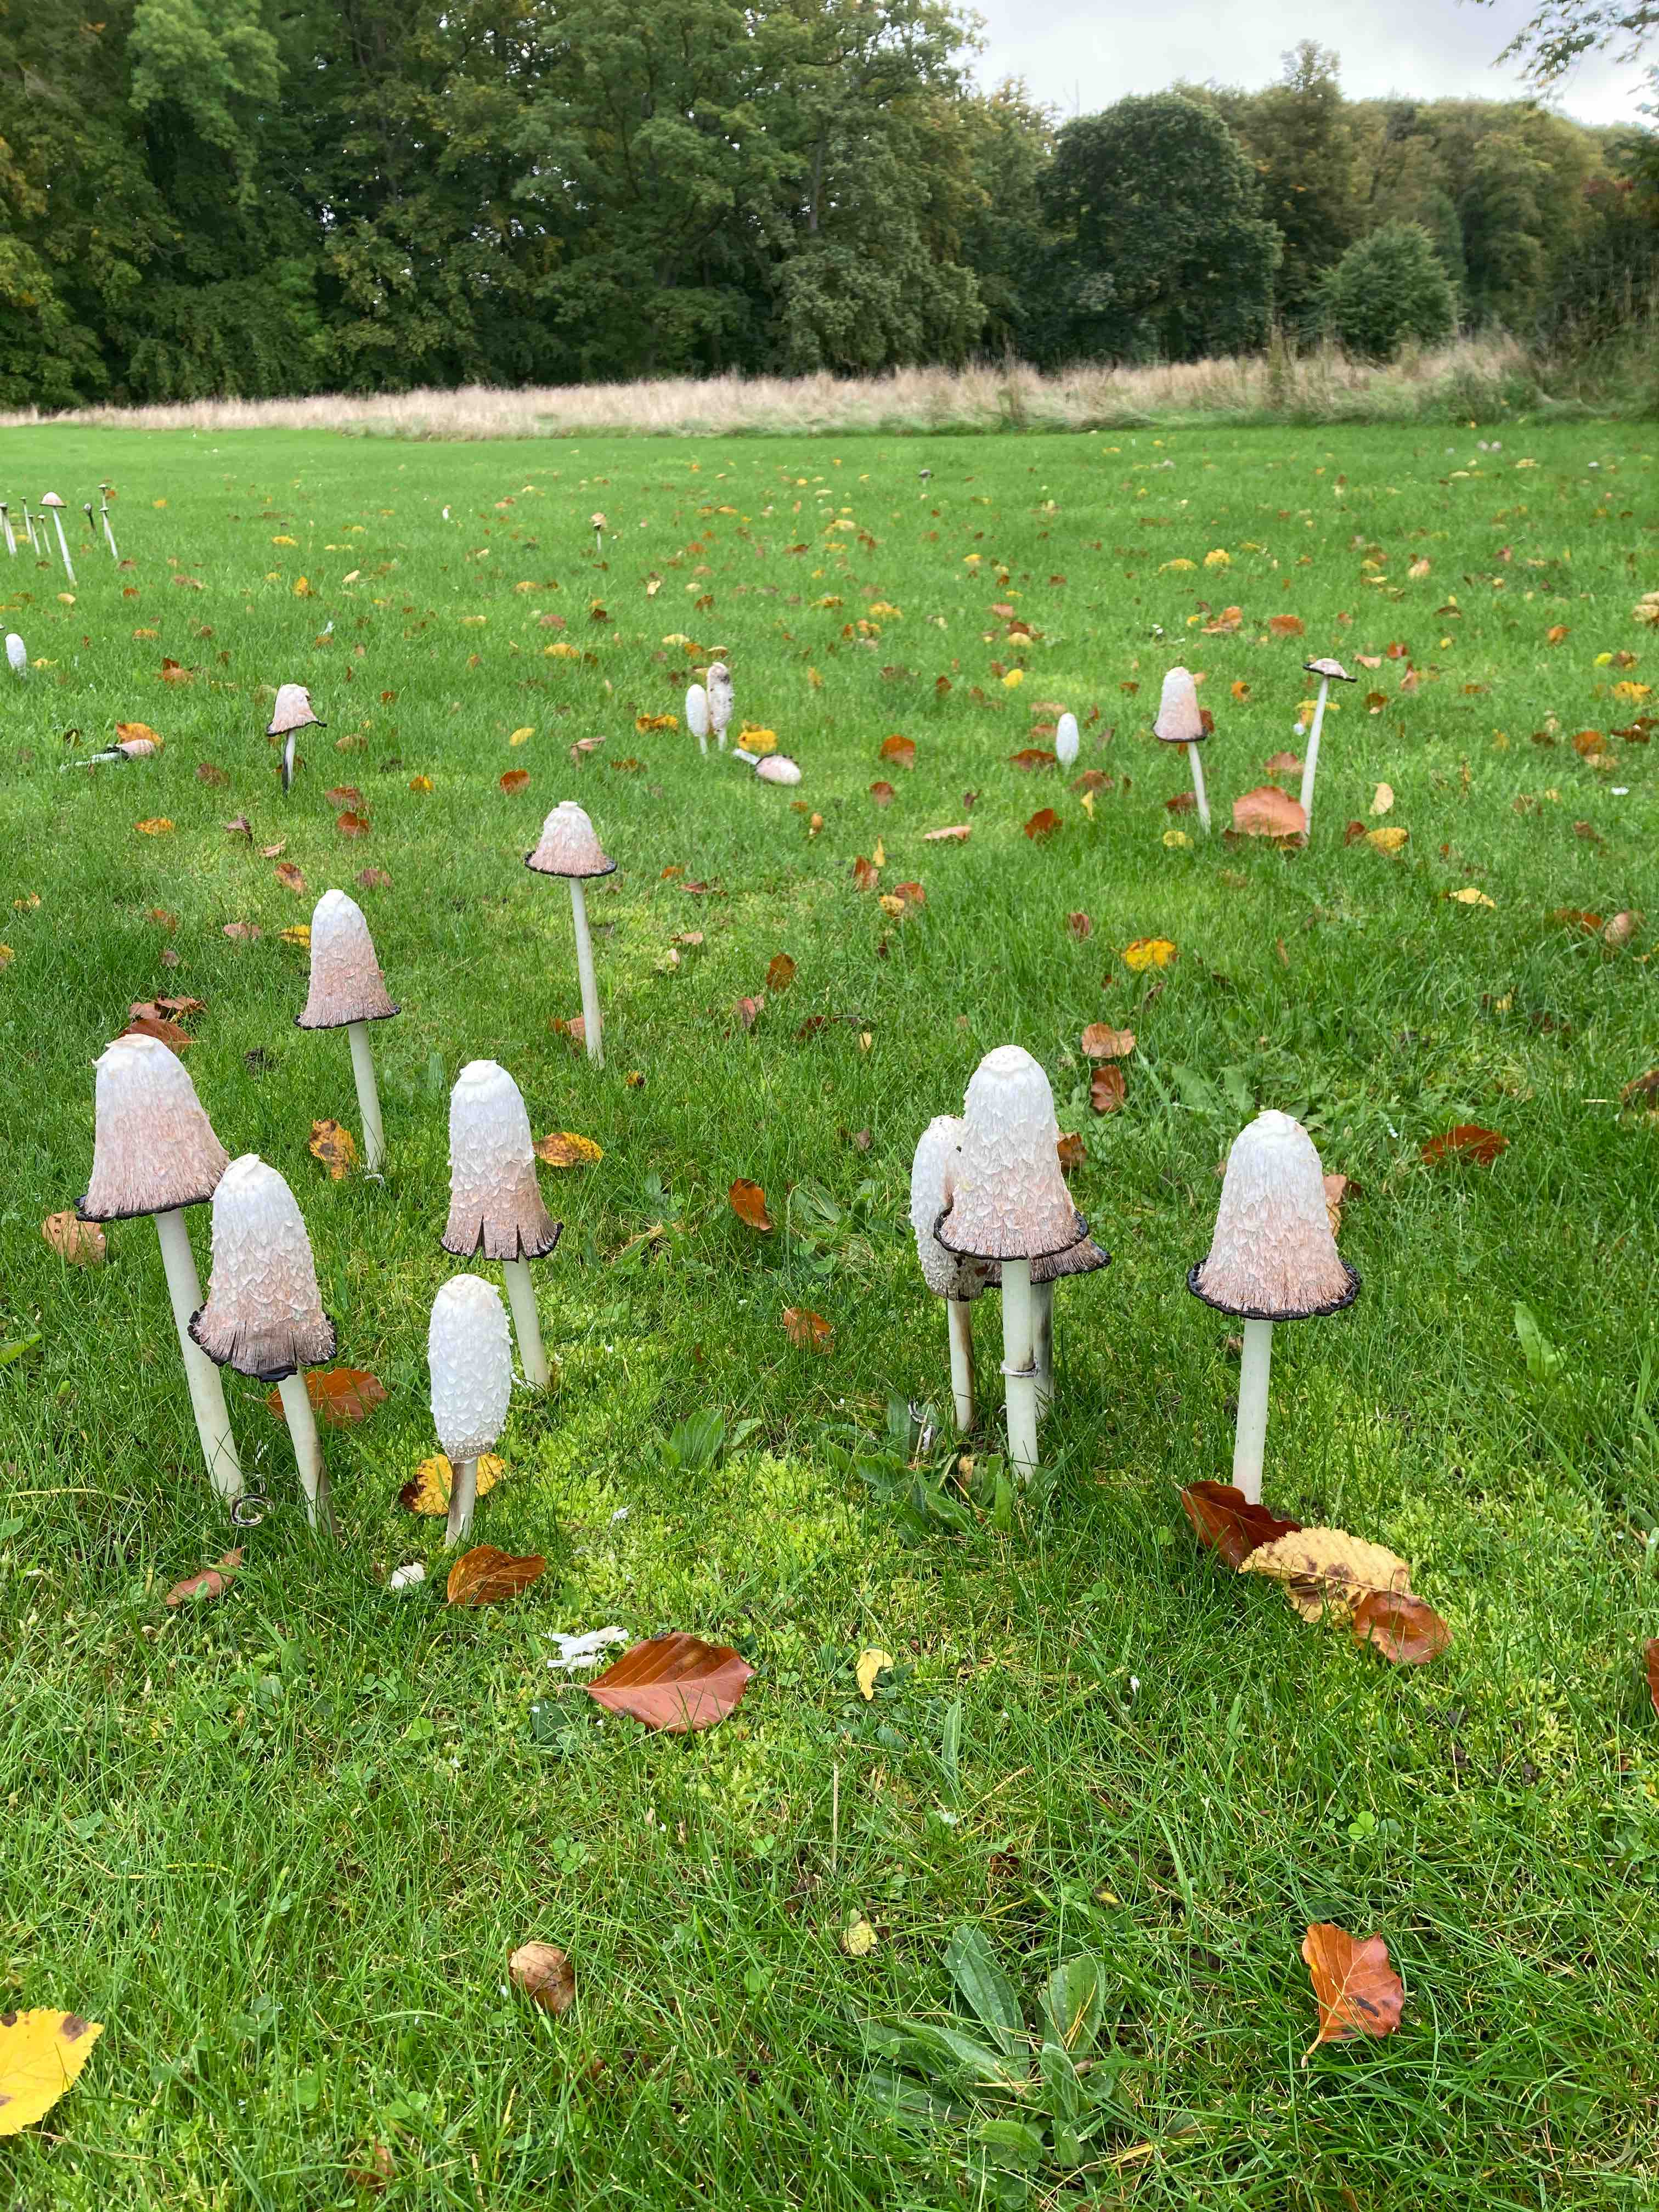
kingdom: Fungi
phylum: Basidiomycota
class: Agaricomycetes
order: Agaricales
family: Agaricaceae
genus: Coprinus
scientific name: Coprinus comatus
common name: stor parykhat
